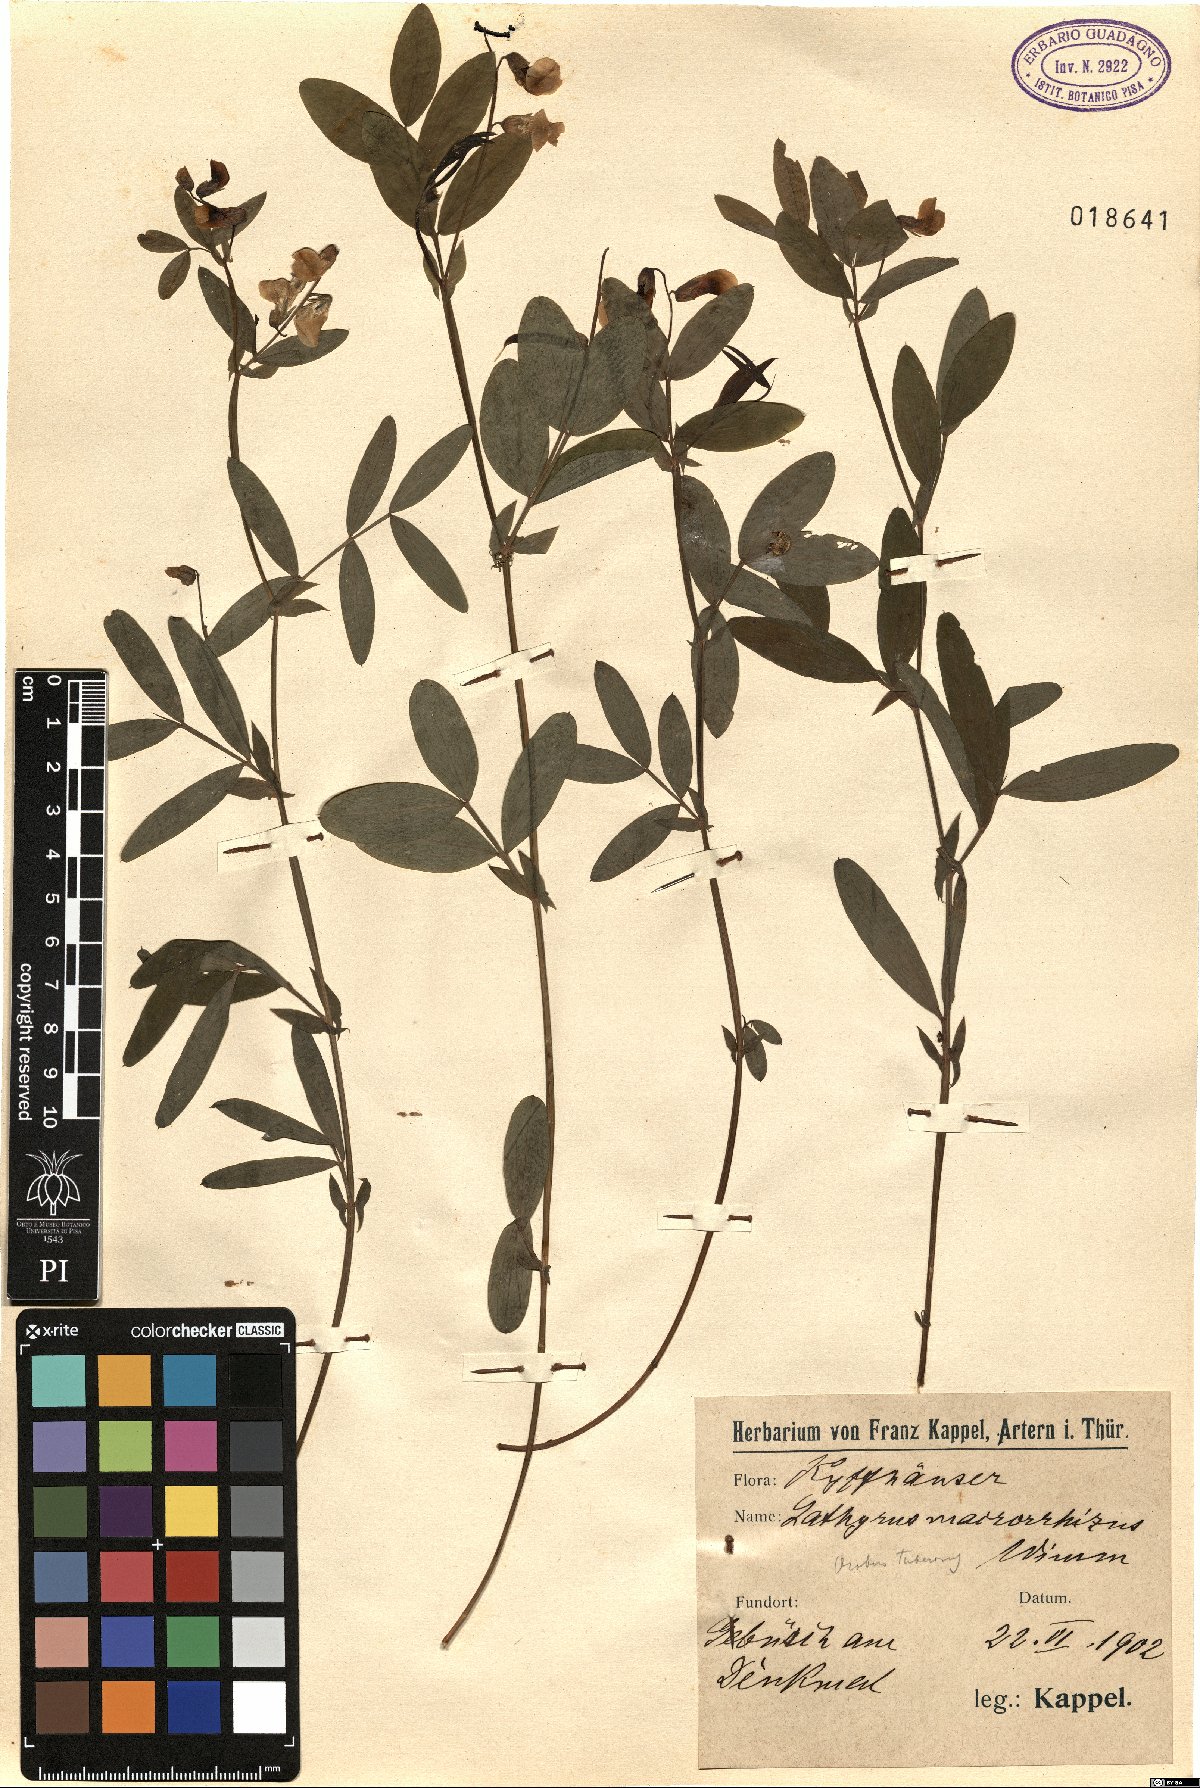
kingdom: Plantae
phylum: Tracheophyta
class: Magnoliopsida
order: Fabales
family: Fabaceae
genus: Lathyrus
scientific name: Lathyrus linifolius
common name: Bitter-vetch
